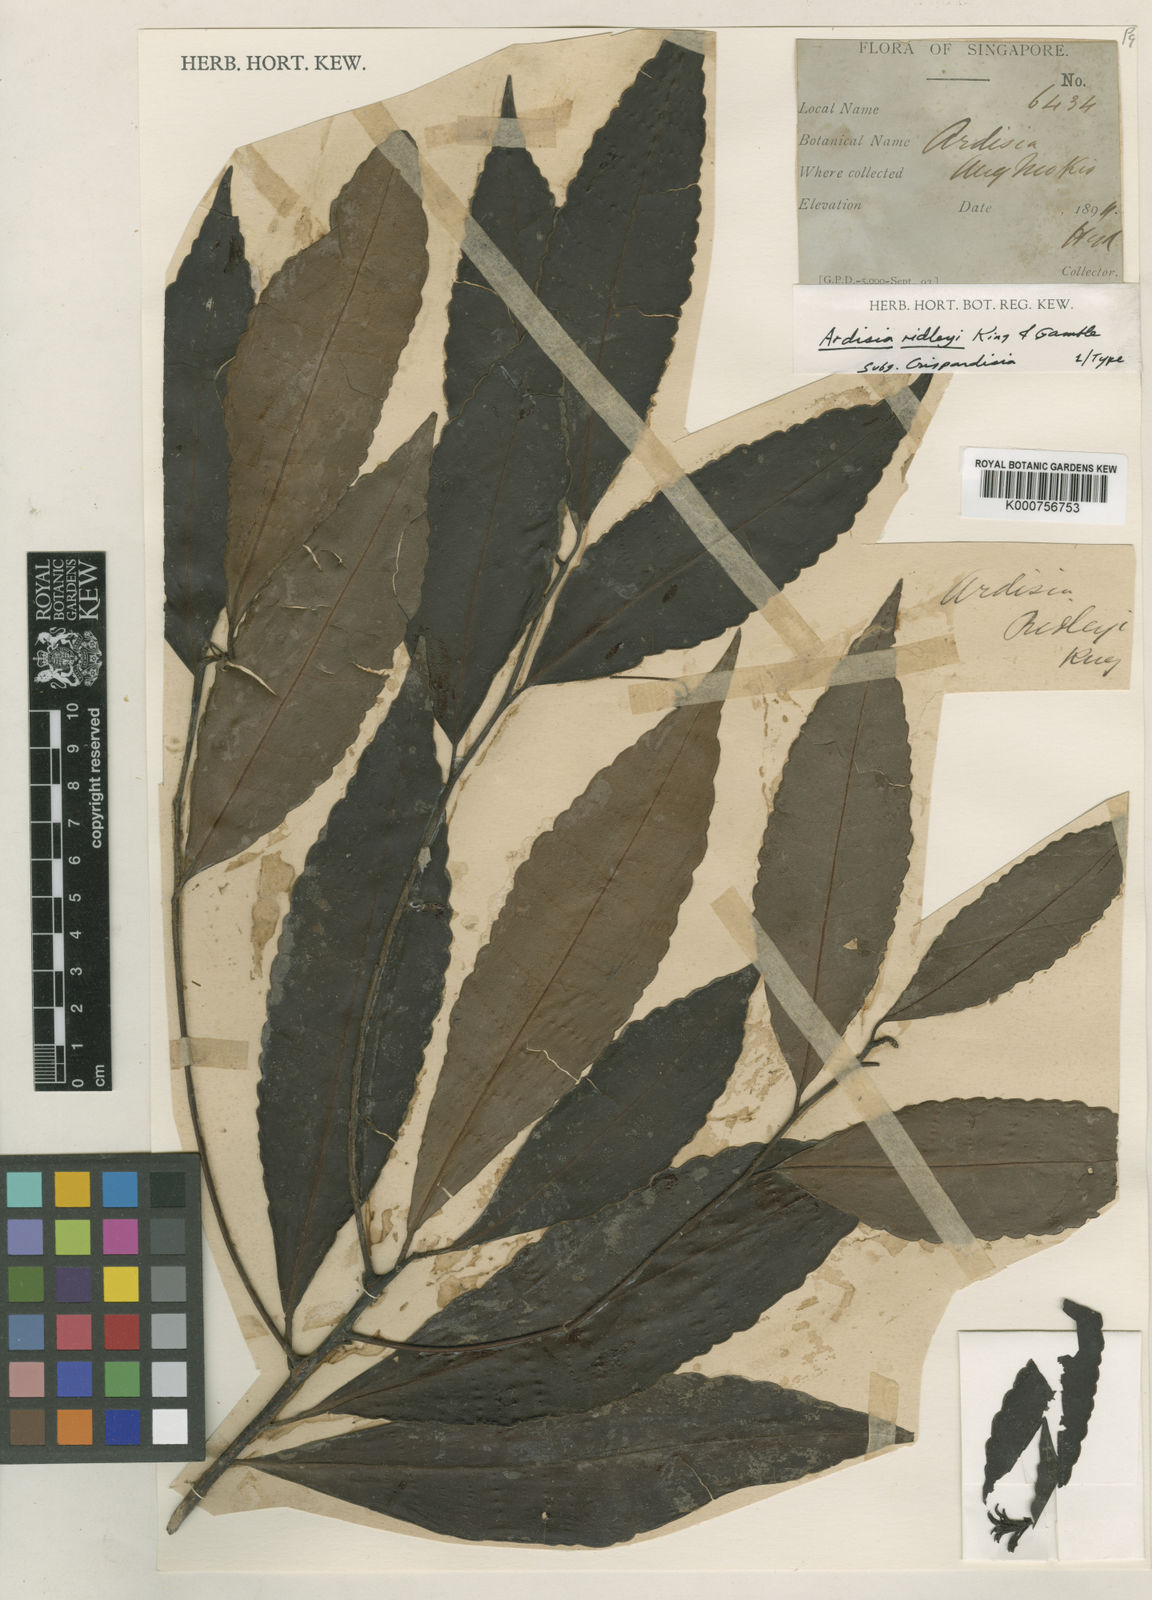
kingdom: Plantae
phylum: Tracheophyta
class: Magnoliopsida
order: Ericales
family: Primulaceae
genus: Ardisia
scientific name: Ardisia ridleyi
